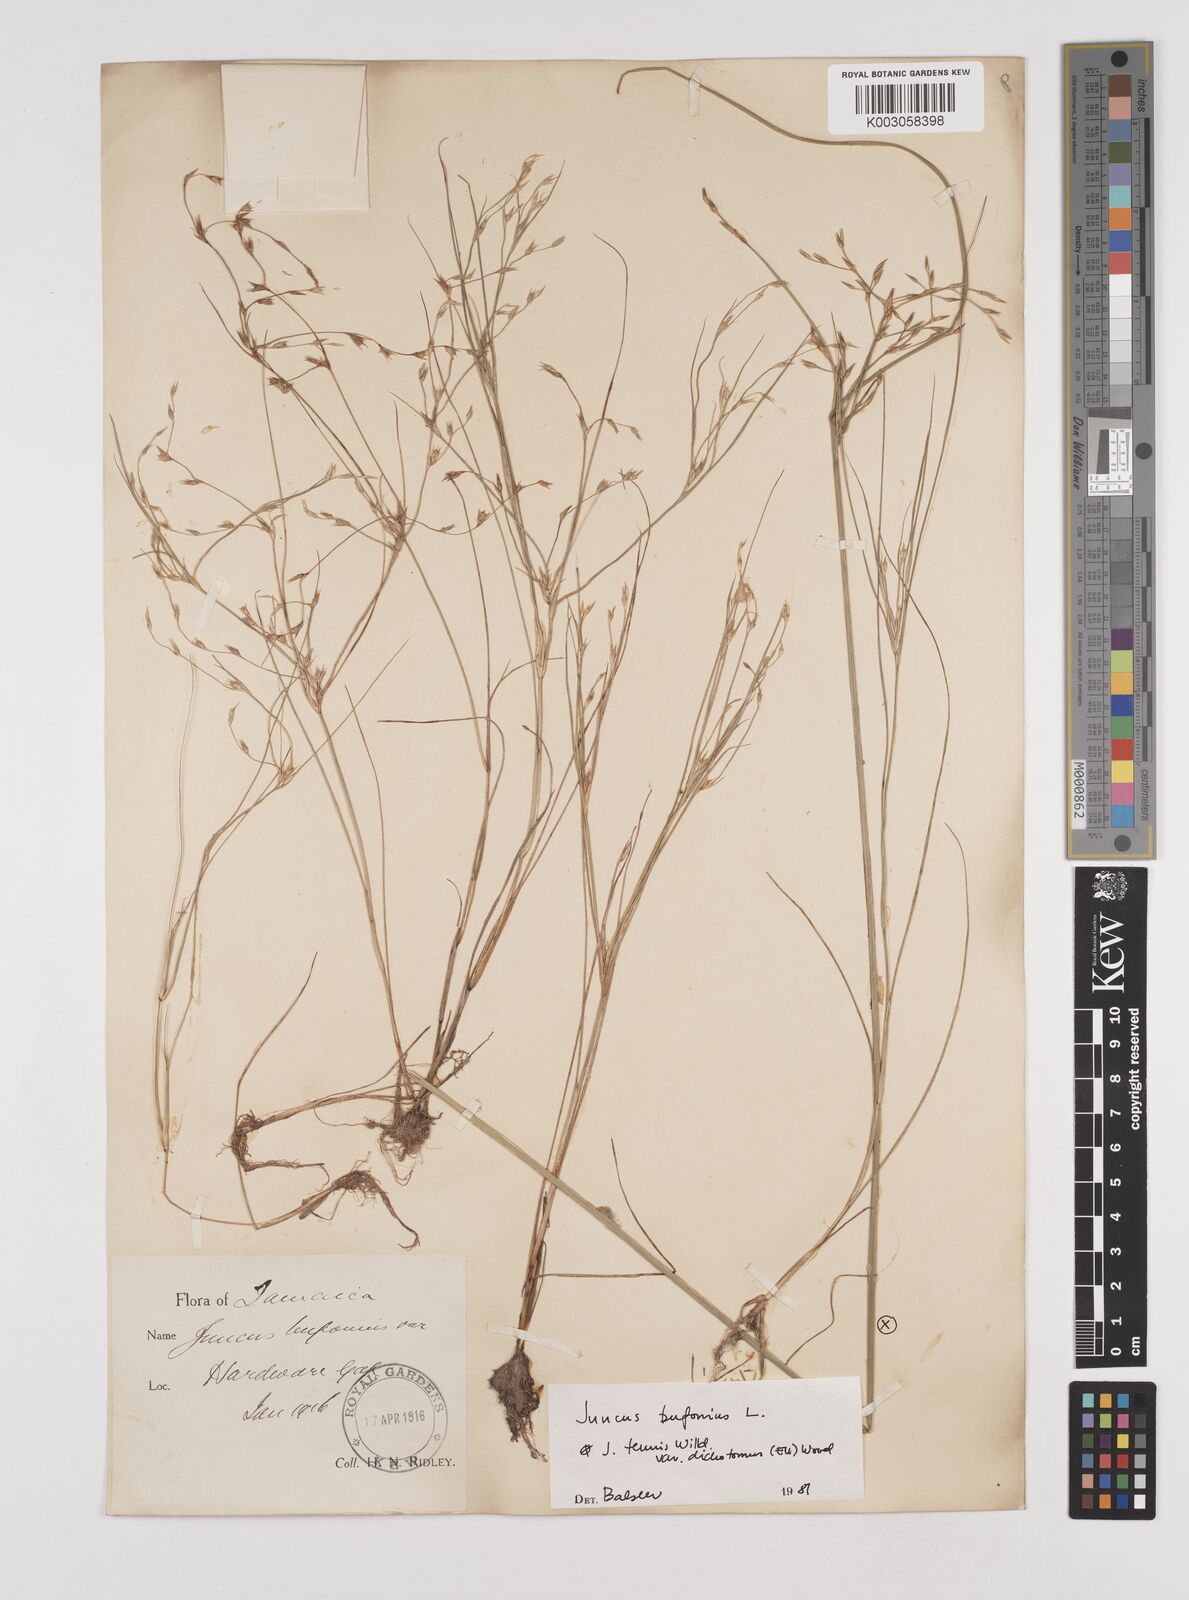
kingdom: Plantae
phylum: Tracheophyta
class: Liliopsida
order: Poales
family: Juncaceae
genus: Juncus
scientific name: Juncus bufonius
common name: Toad rush
